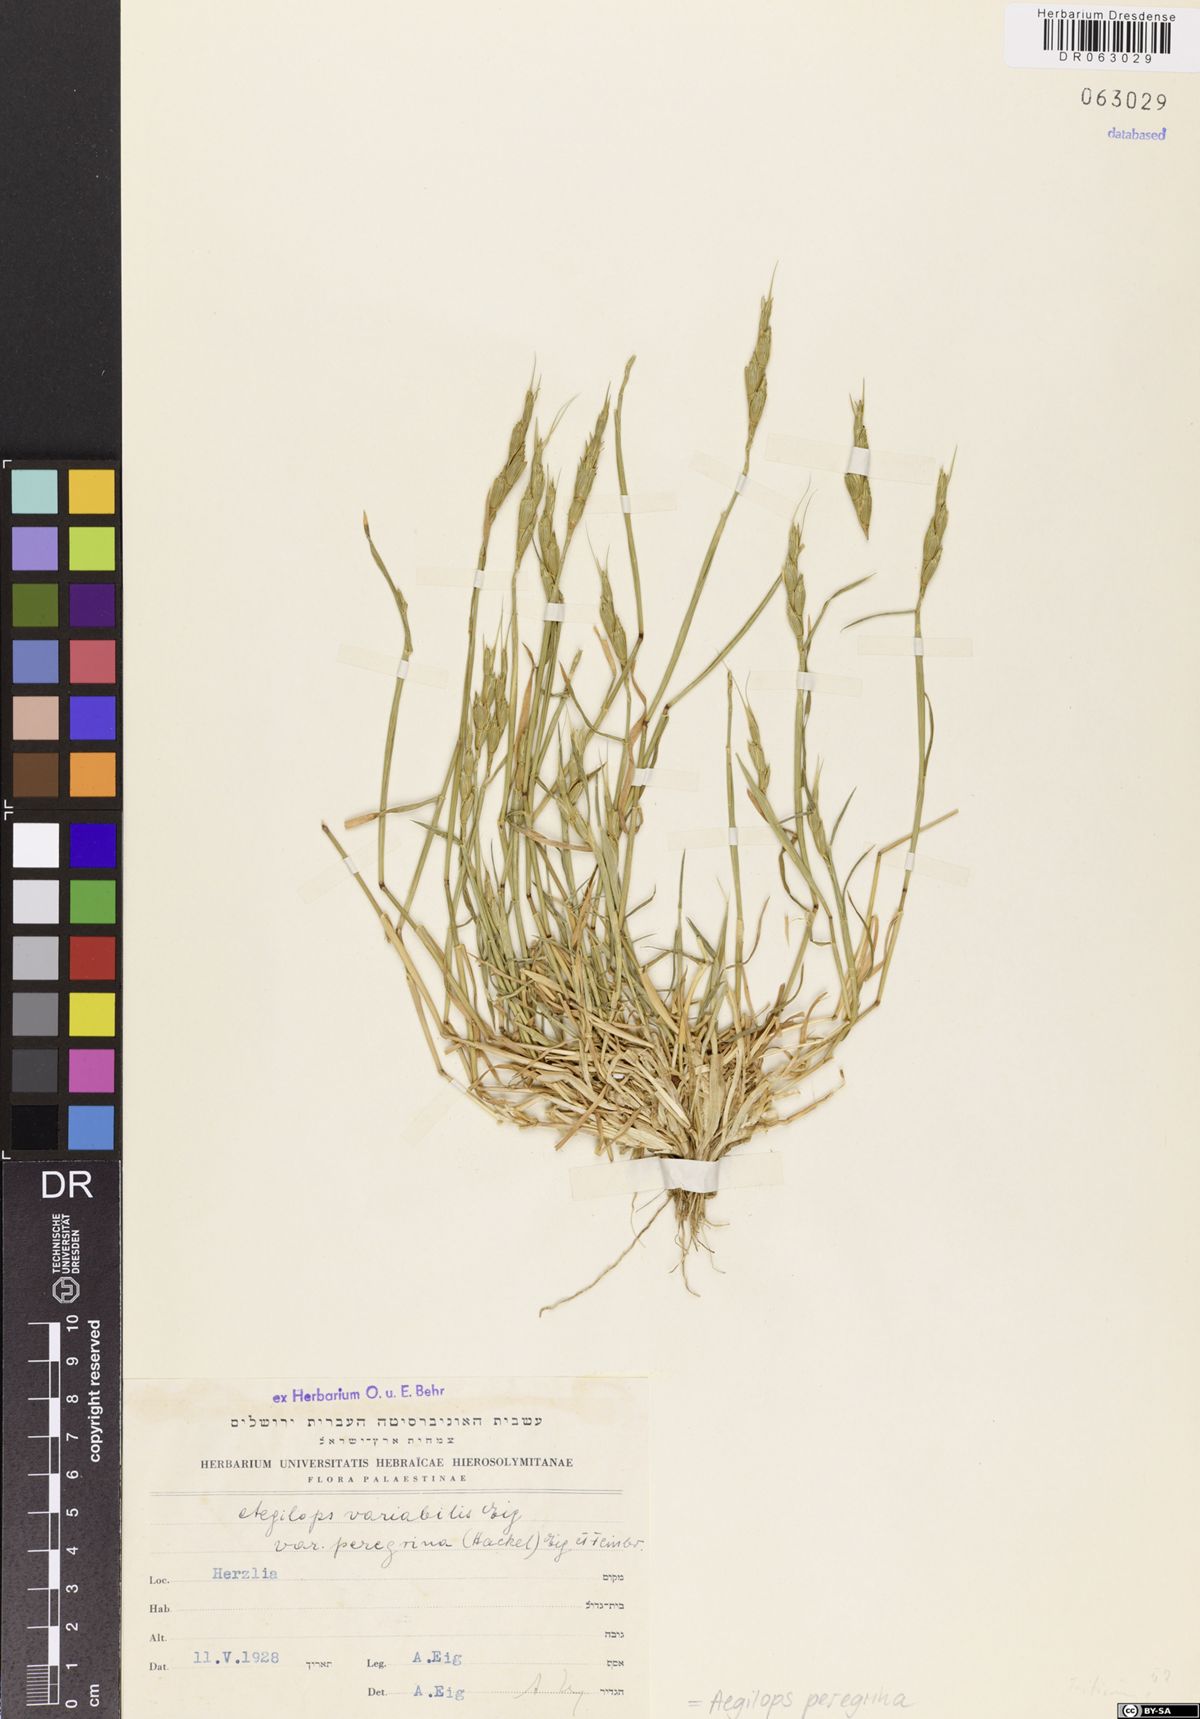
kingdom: Plantae
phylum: Tracheophyta
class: Liliopsida
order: Poales
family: Poaceae
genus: Aegilops
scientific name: Aegilops peregrina
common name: Goatgrass
